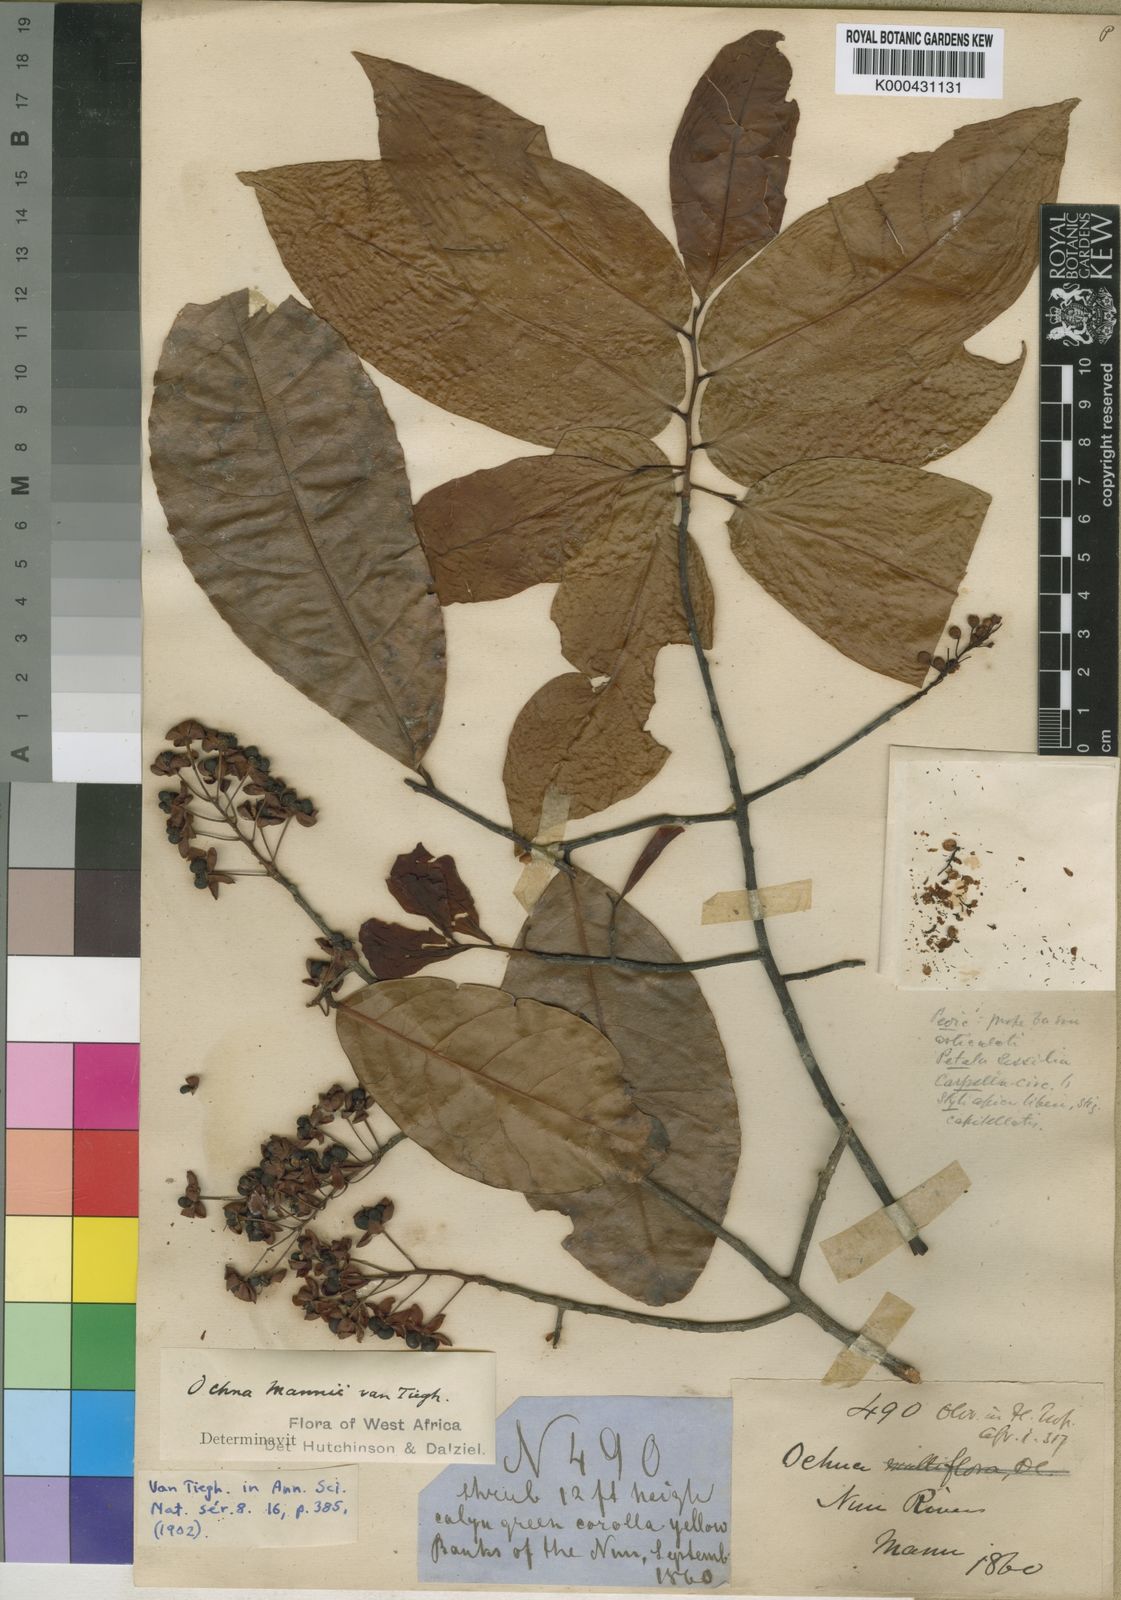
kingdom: Plantae
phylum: Tracheophyta
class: Magnoliopsida
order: Malpighiales
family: Ochnaceae
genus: Ochna
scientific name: Ochna multiflora
